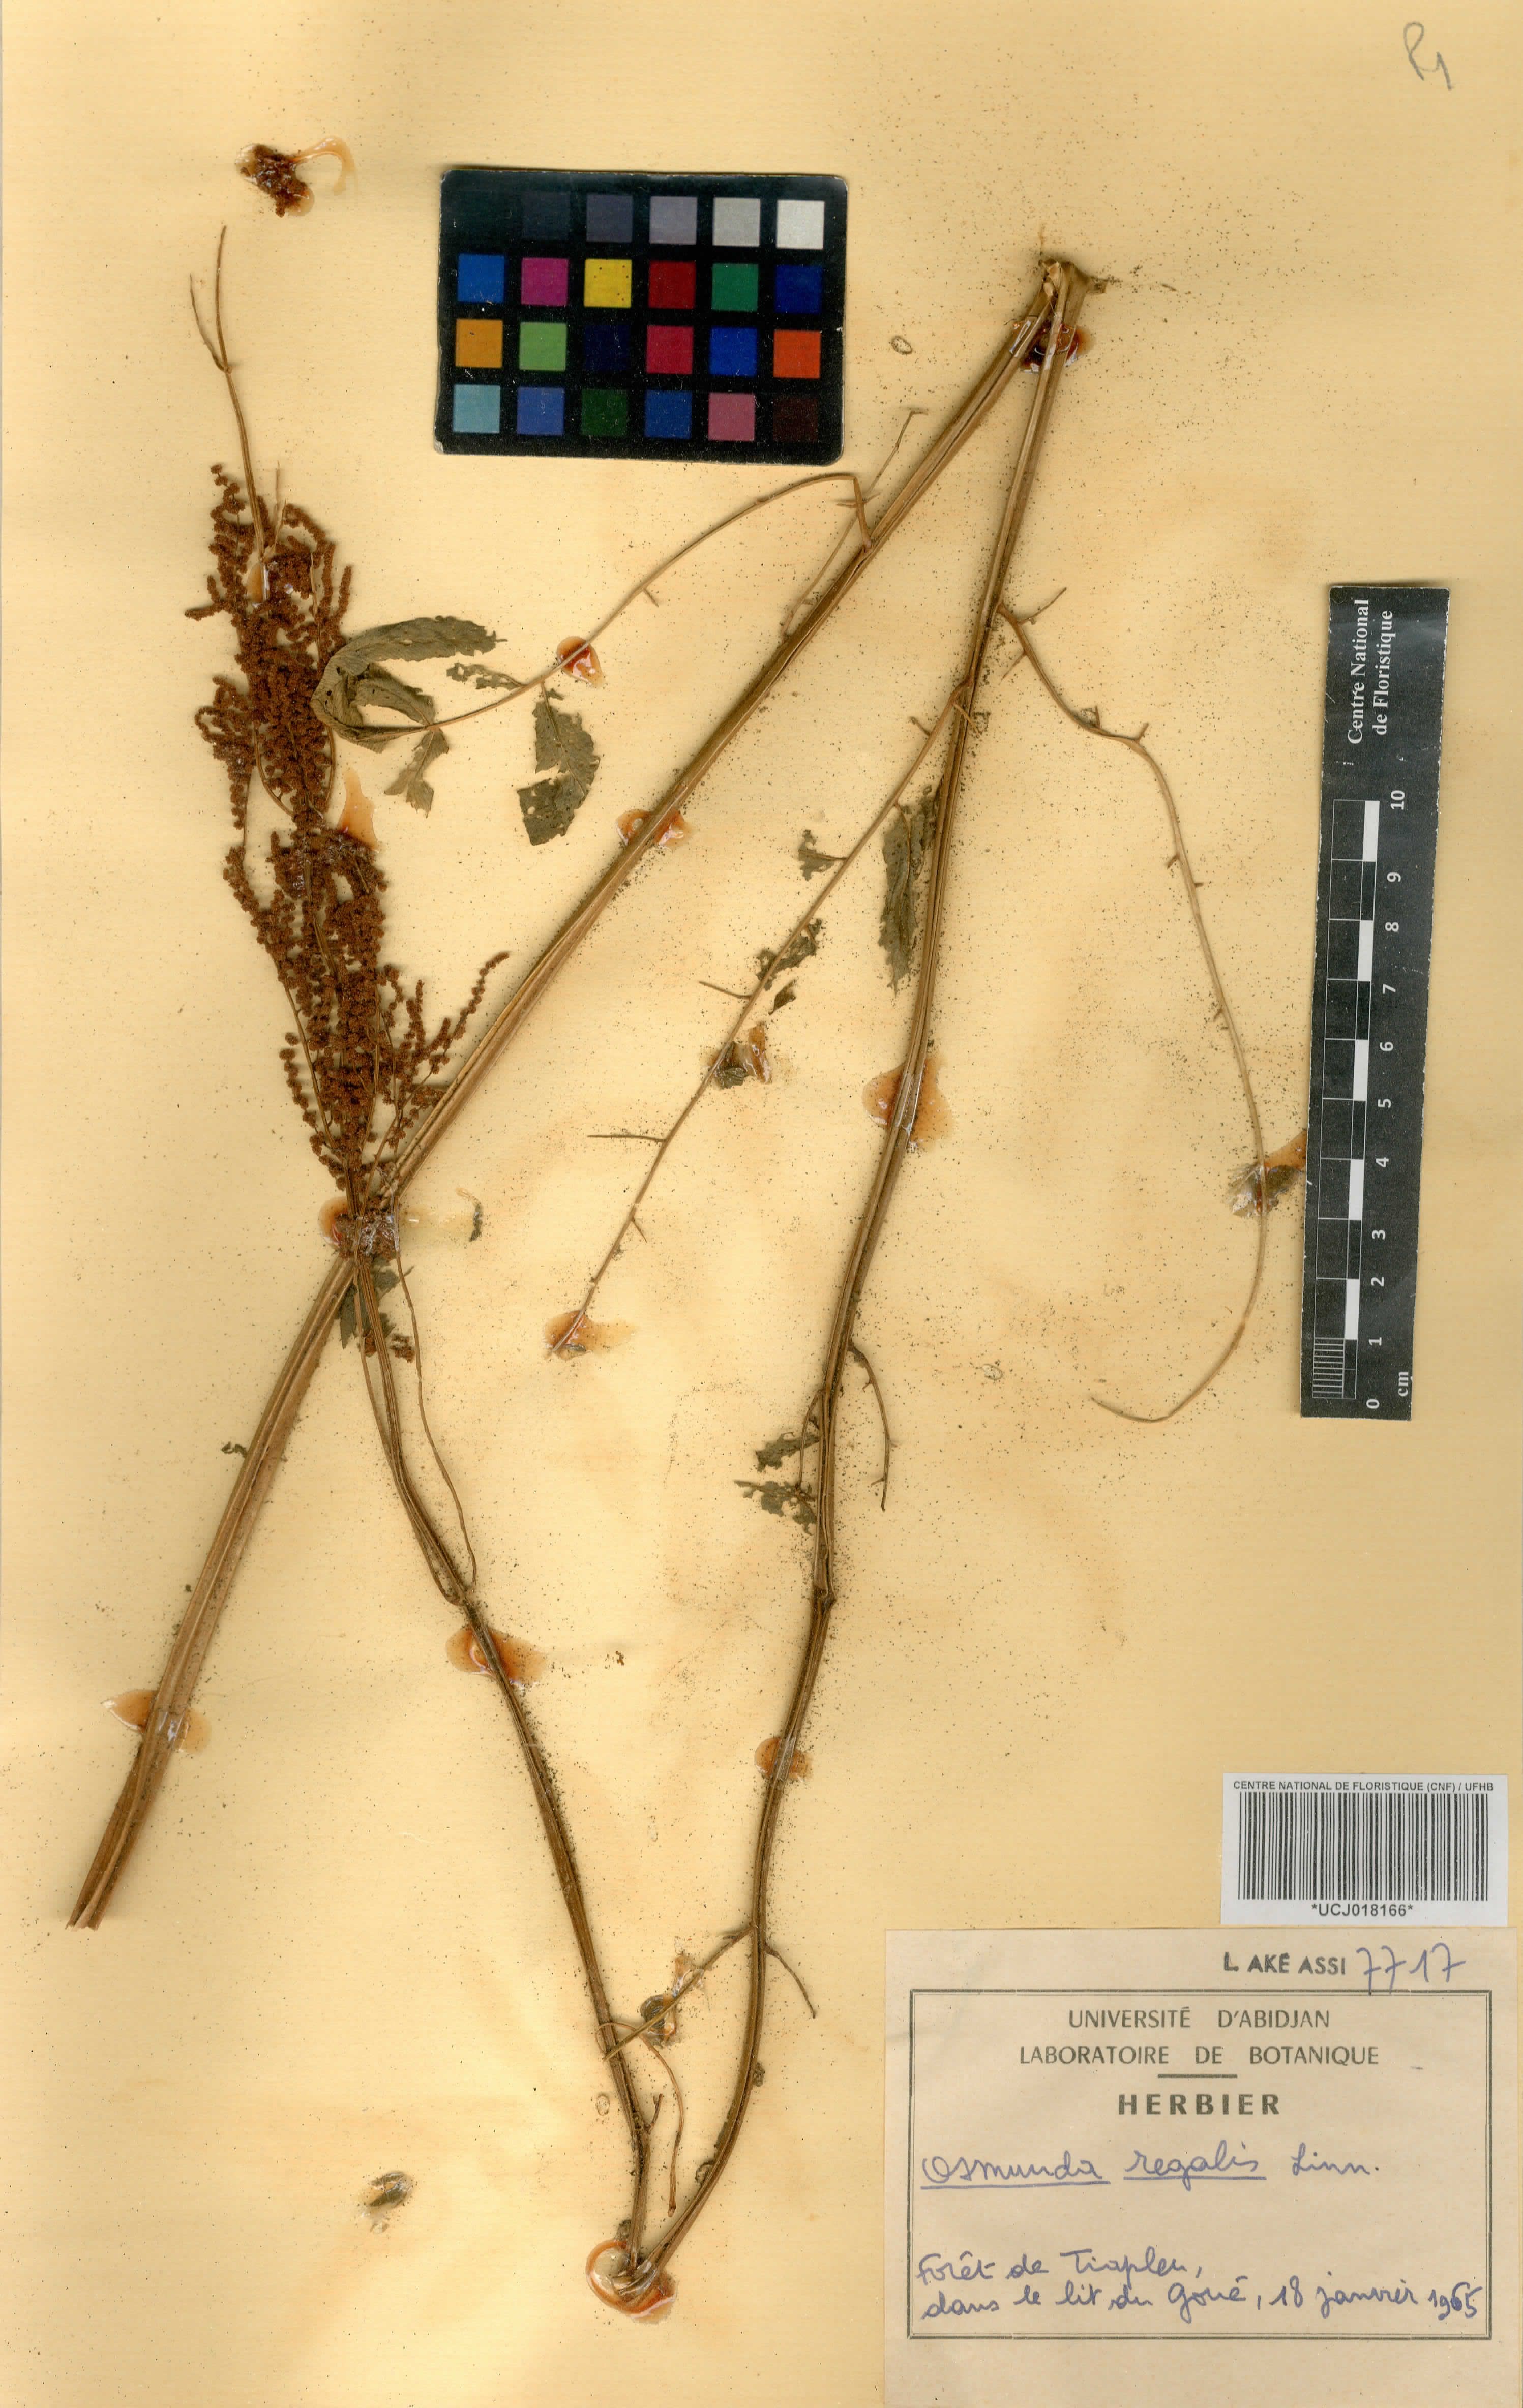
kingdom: Plantae
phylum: Tracheophyta
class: Polypodiopsida
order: Osmundales
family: Osmundaceae
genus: Osmunda
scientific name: Osmunda regalis
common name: Royal fern
